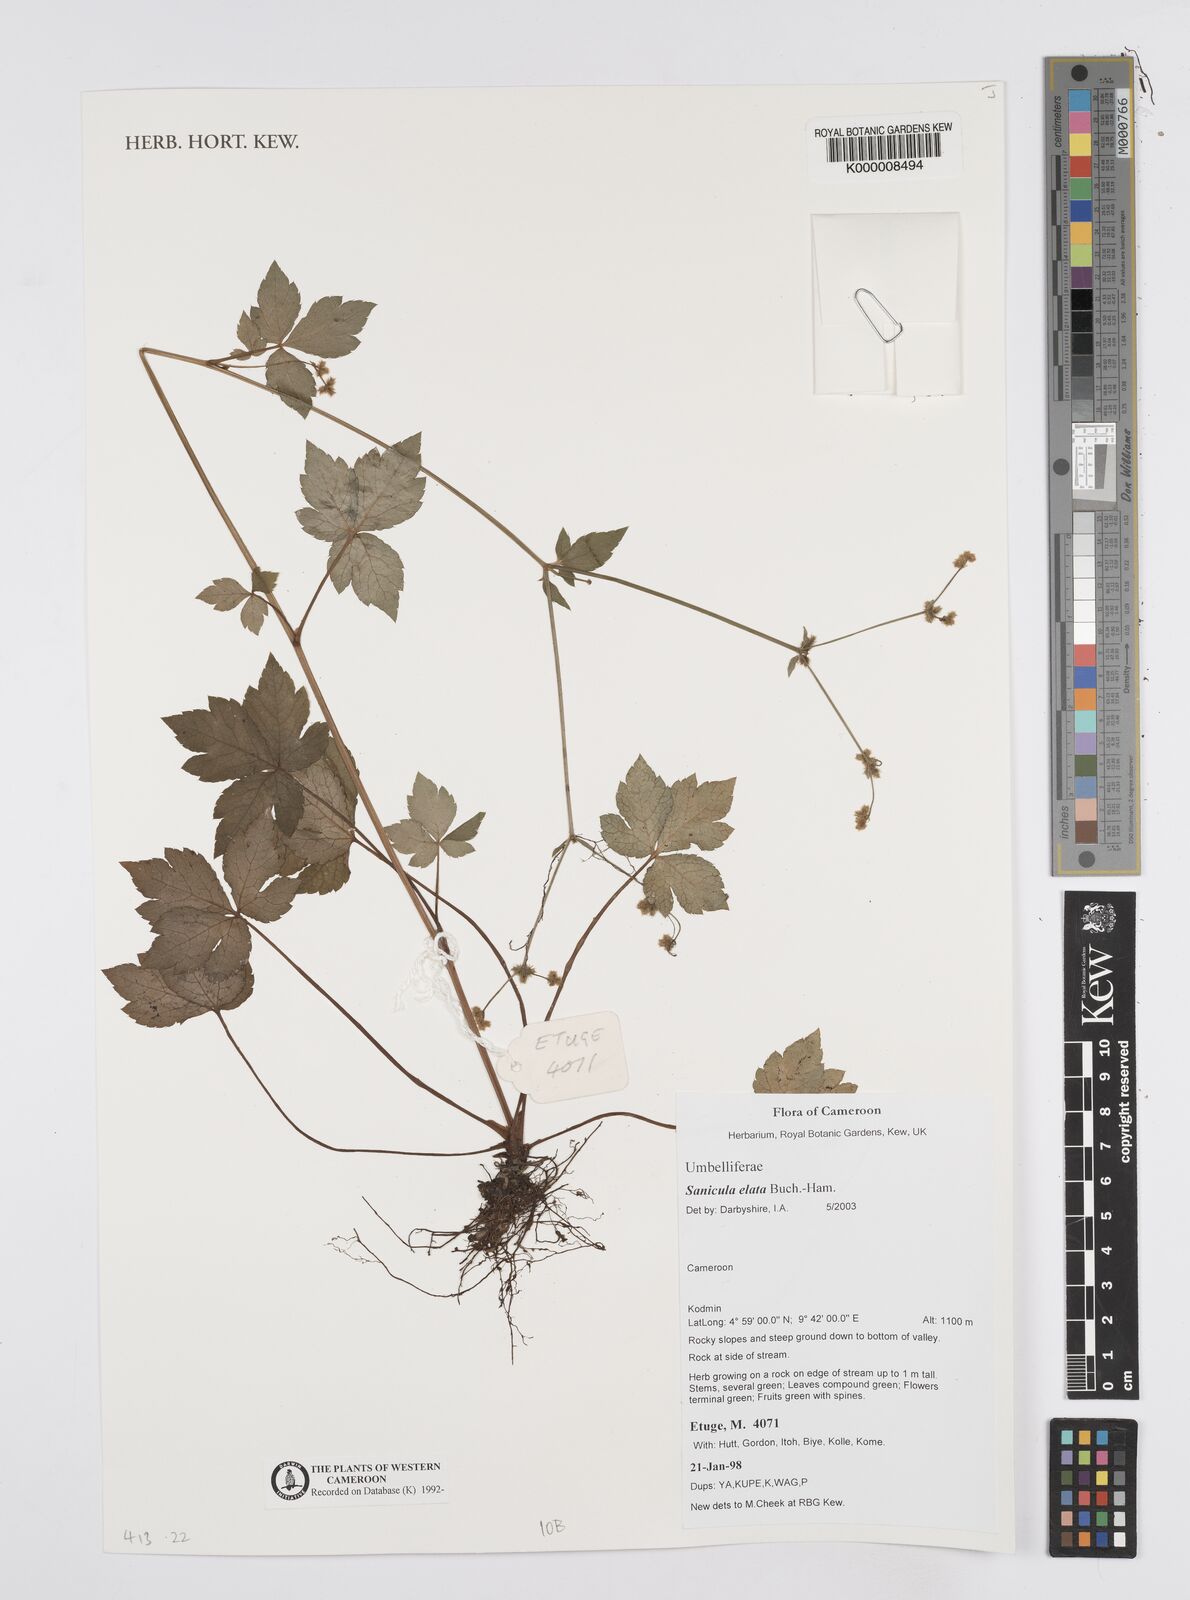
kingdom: Plantae
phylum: Tracheophyta
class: Magnoliopsida
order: Apiales
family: Apiaceae
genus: Sanicula
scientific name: Sanicula
